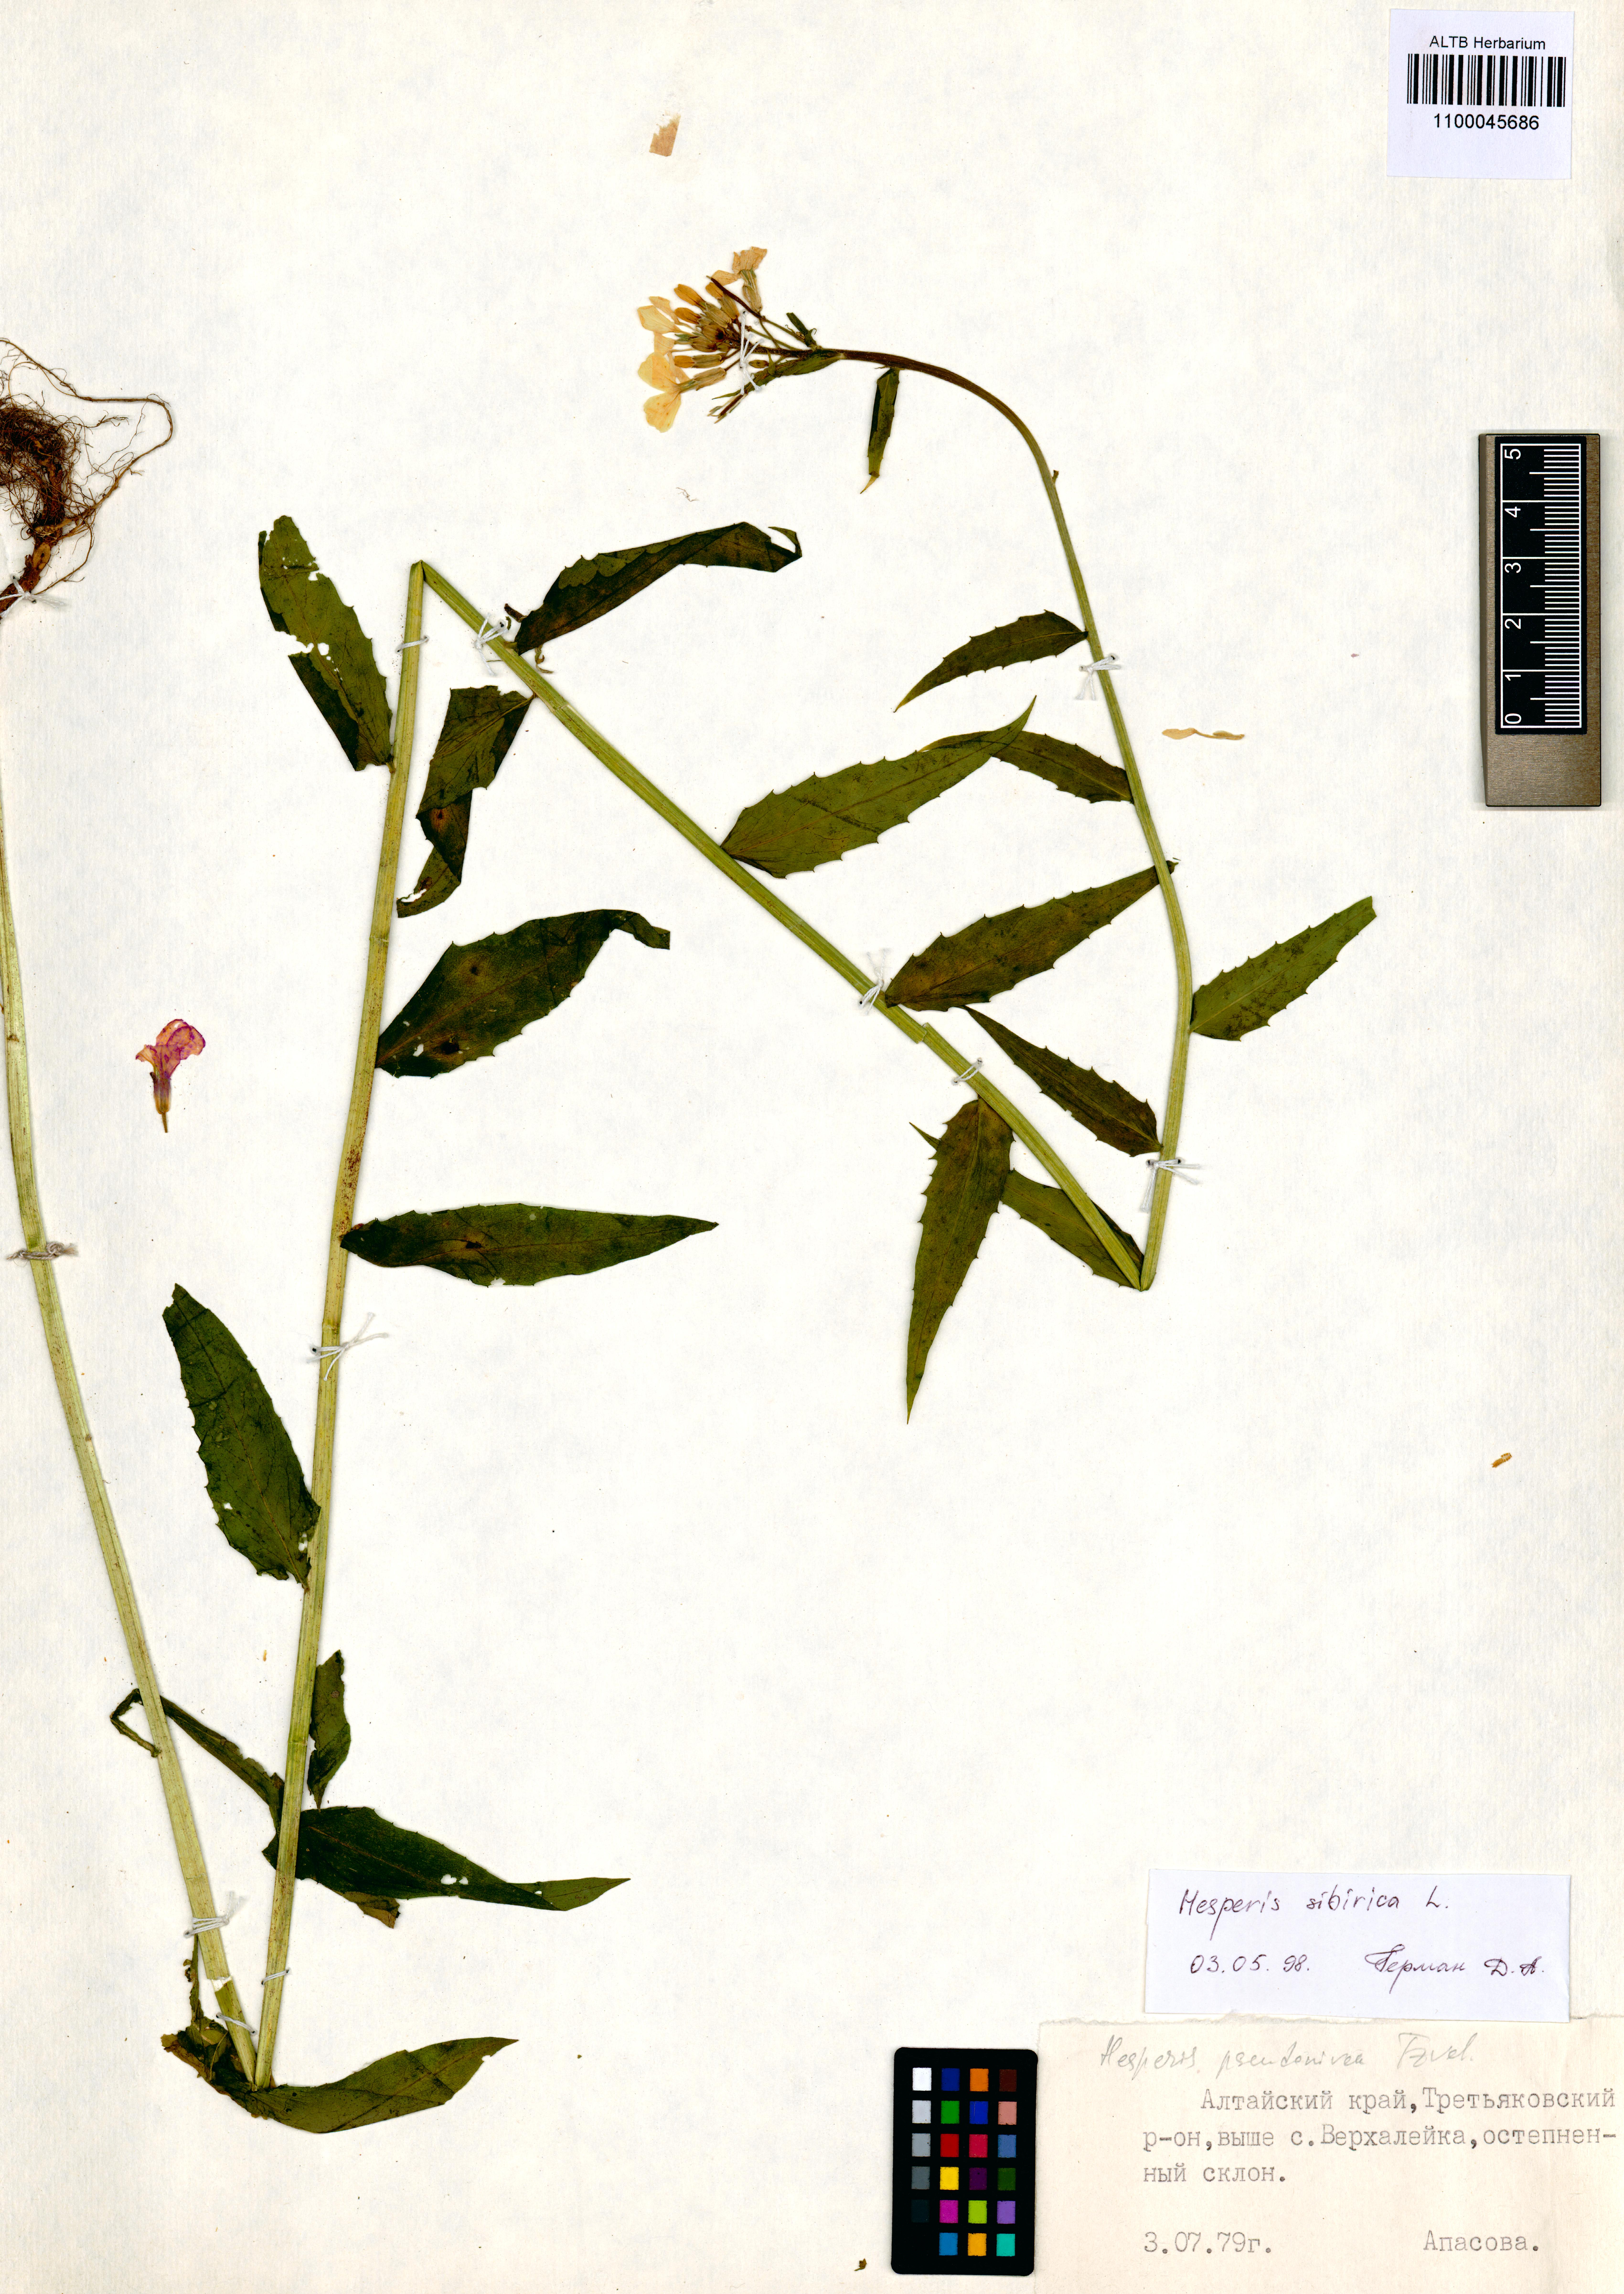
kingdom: Plantae
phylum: Tracheophyta
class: Magnoliopsida
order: Brassicales
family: Brassicaceae
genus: Hesperis
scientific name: Hesperis sibirica
